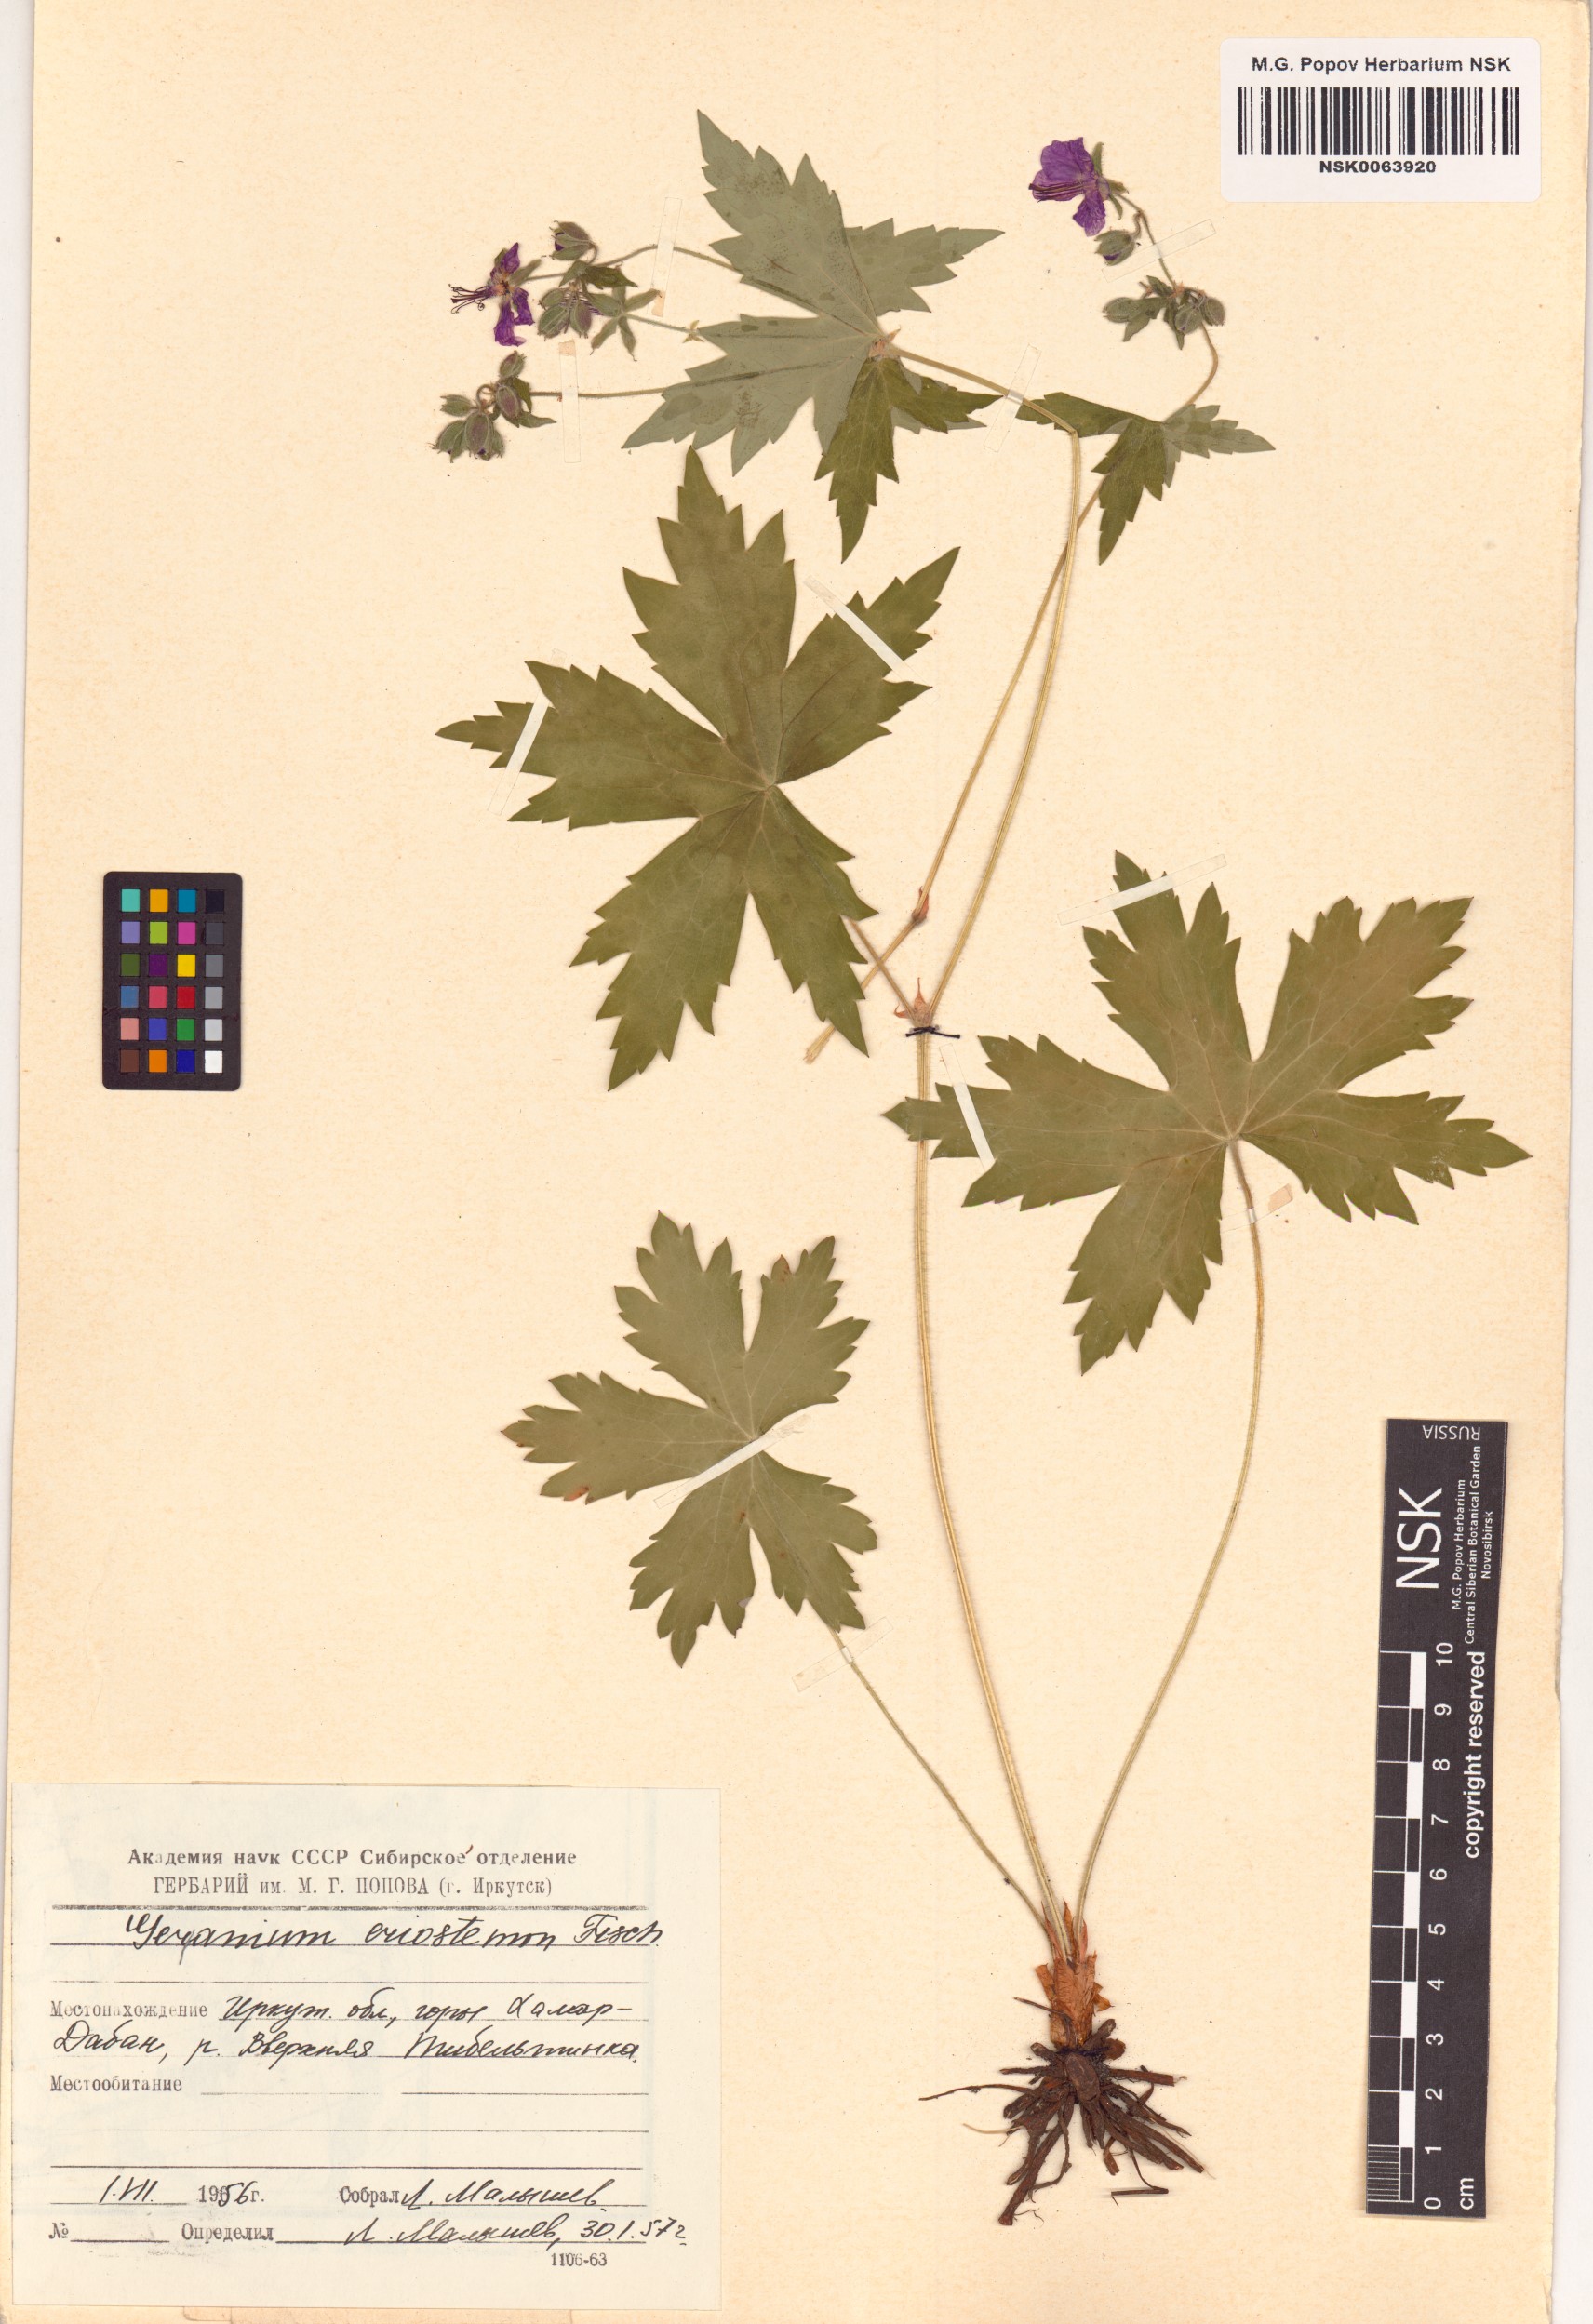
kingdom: Plantae
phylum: Tracheophyta
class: Magnoliopsida
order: Geraniales
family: Geraniaceae
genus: Geranium
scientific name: Geranium platyanthum
